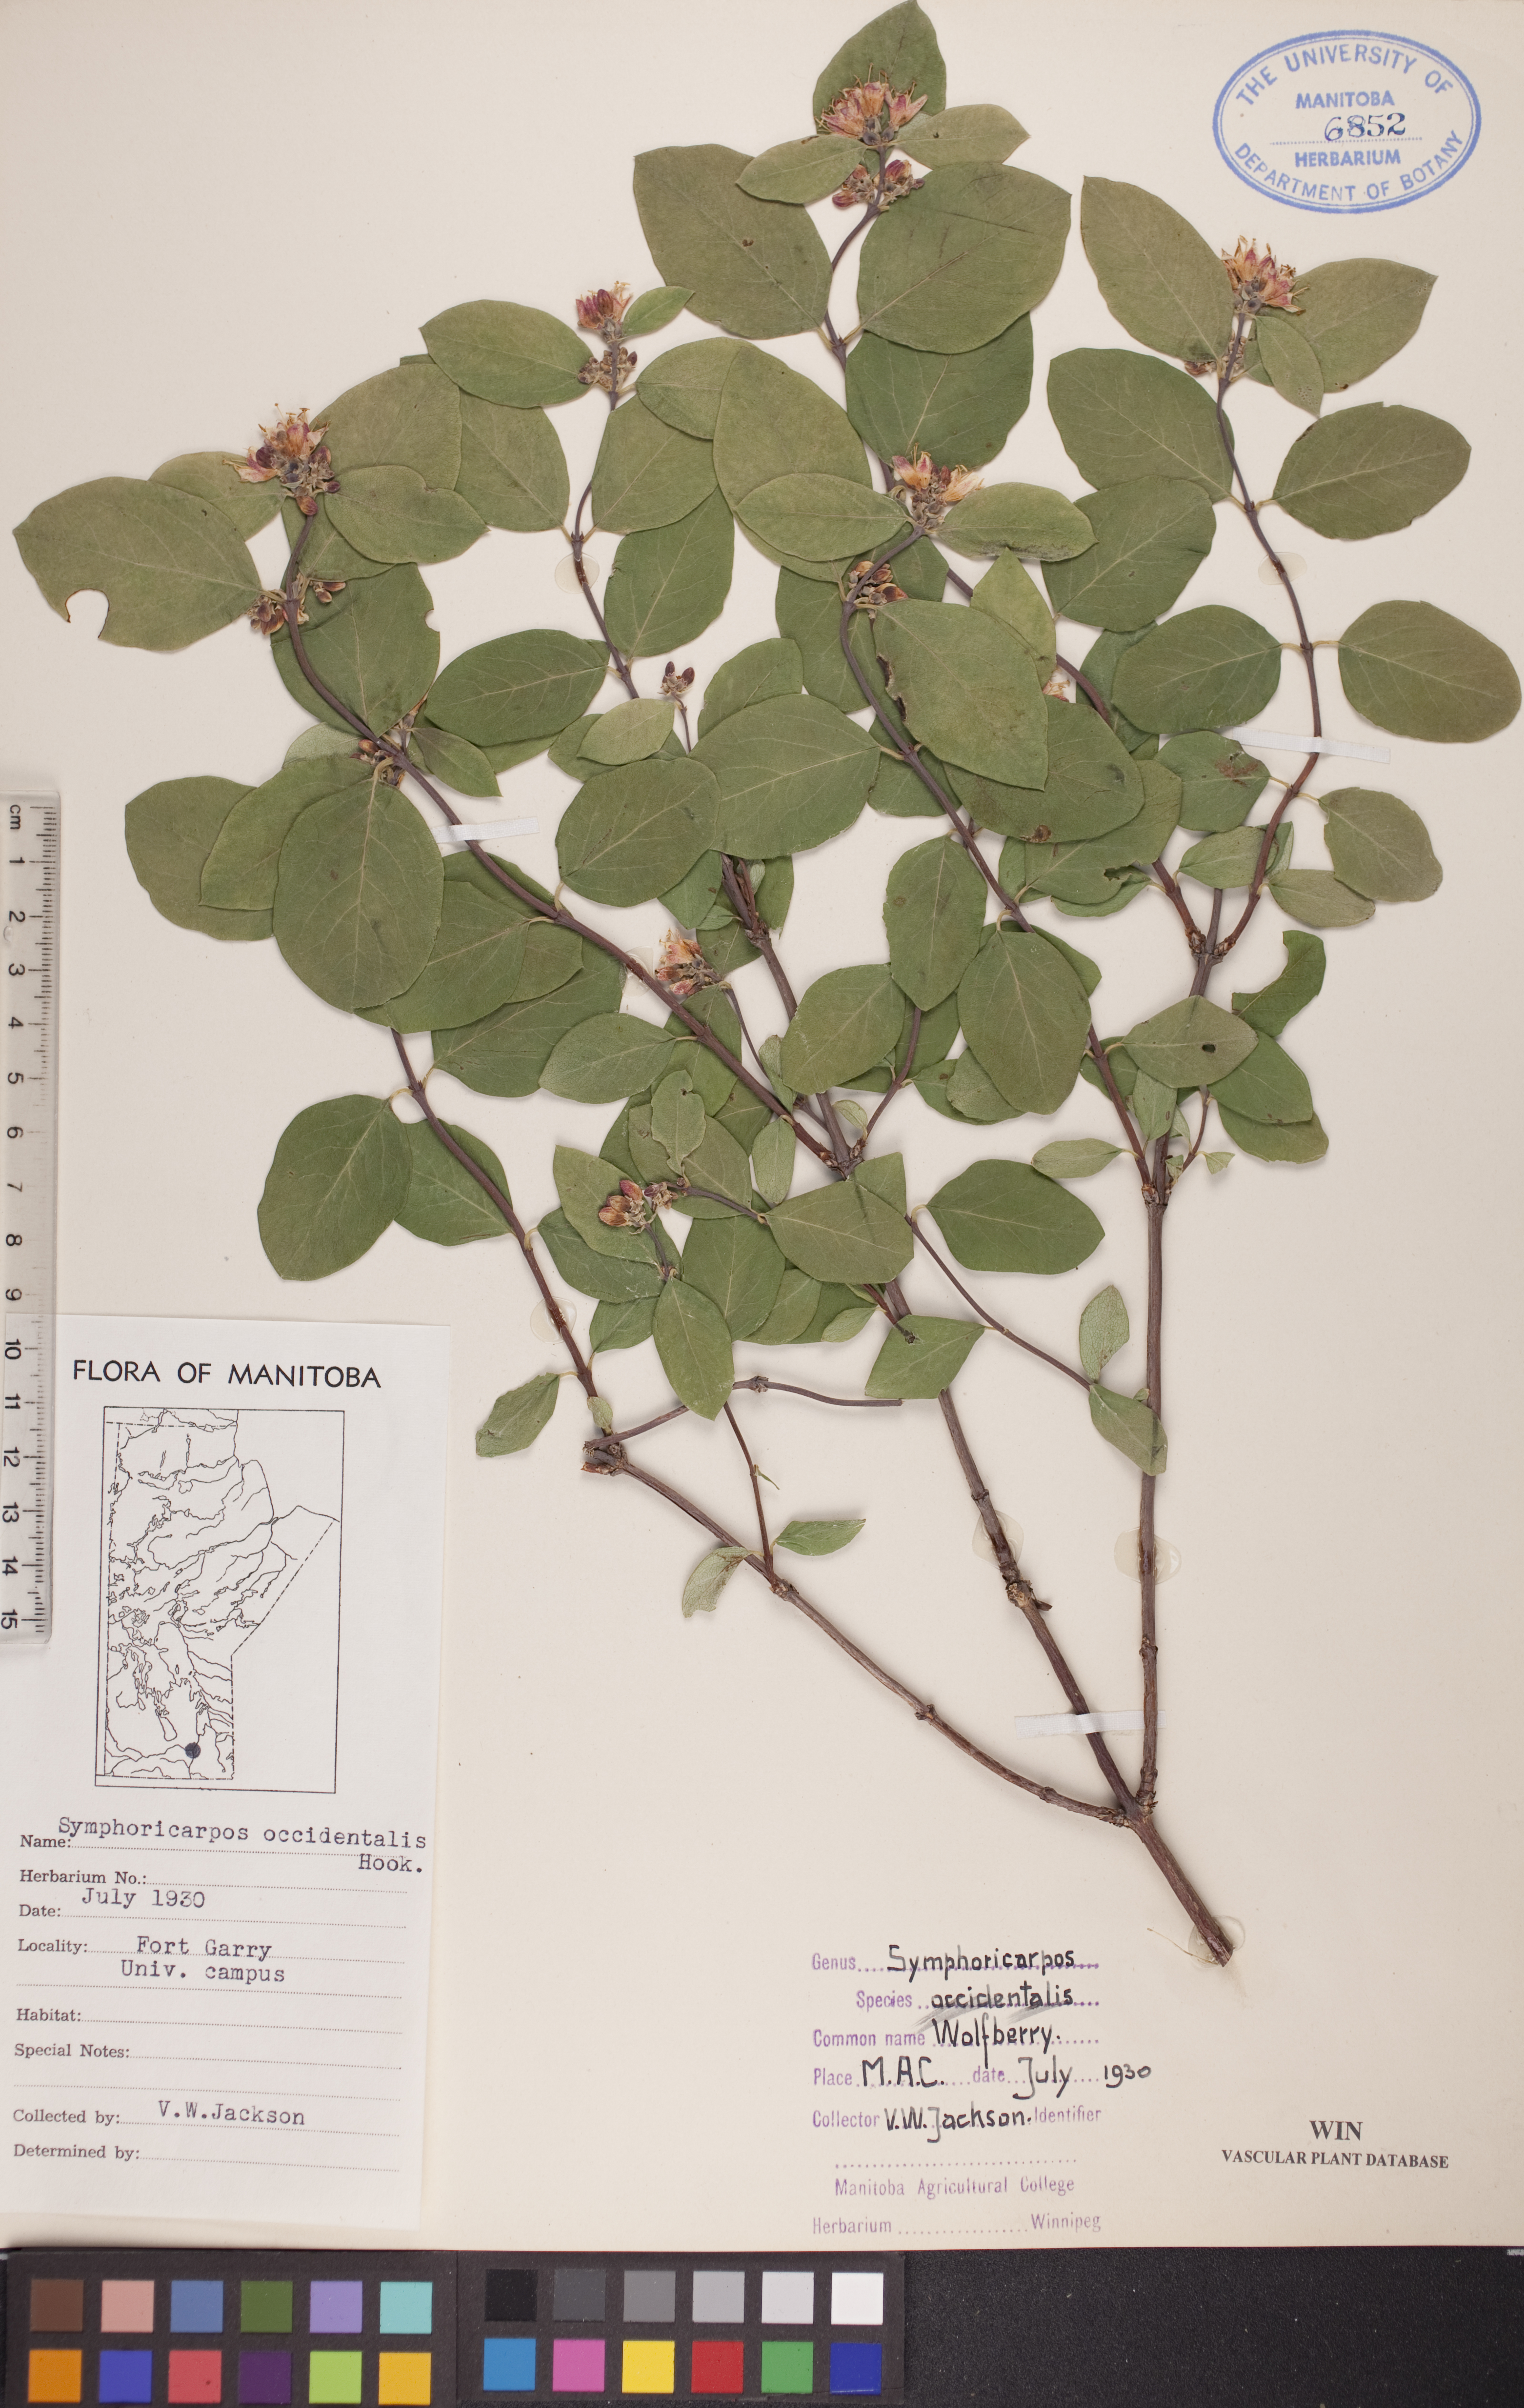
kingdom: Plantae
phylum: Tracheophyta
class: Magnoliopsida
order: Dipsacales
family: Caprifoliaceae
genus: Symphoricarpos
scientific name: Symphoricarpos occidentalis
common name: Wolfberry
